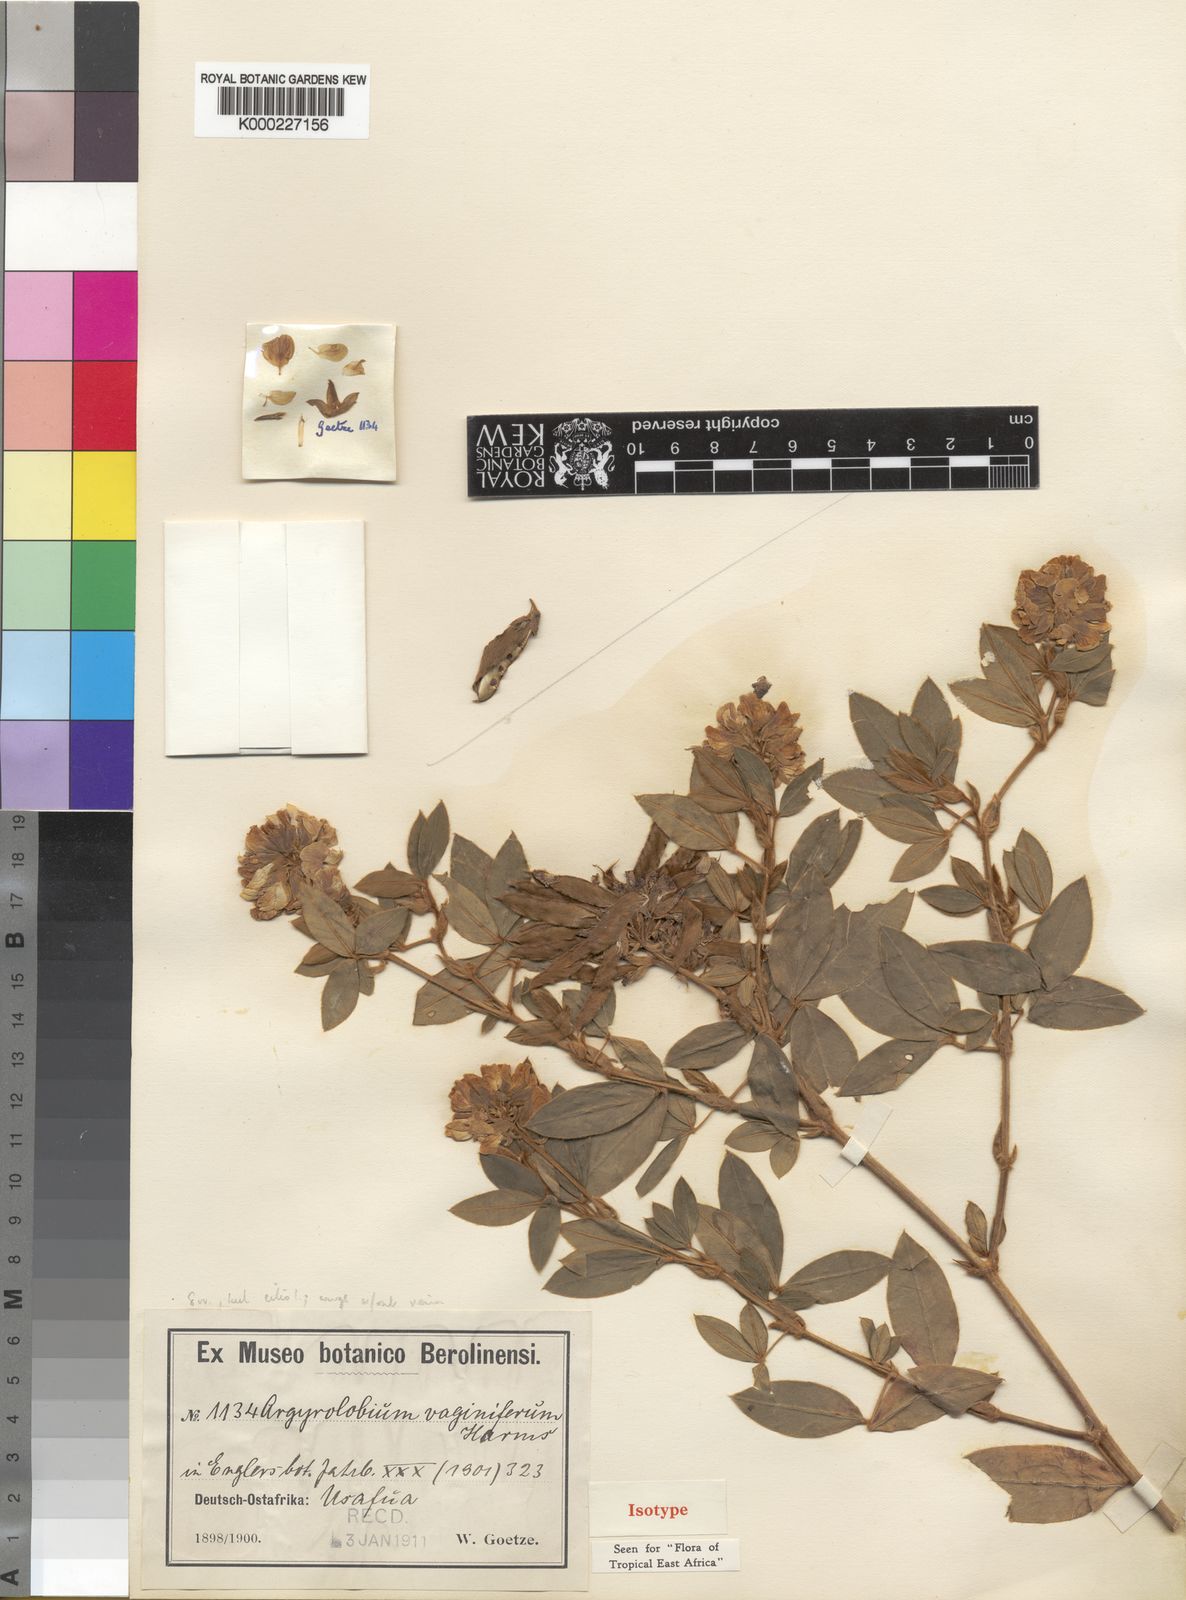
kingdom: Plantae
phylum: Tracheophyta
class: Magnoliopsida
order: Fabales
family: Fabaceae
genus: Argyrolobium
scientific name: Argyrolobium vaginiferum
